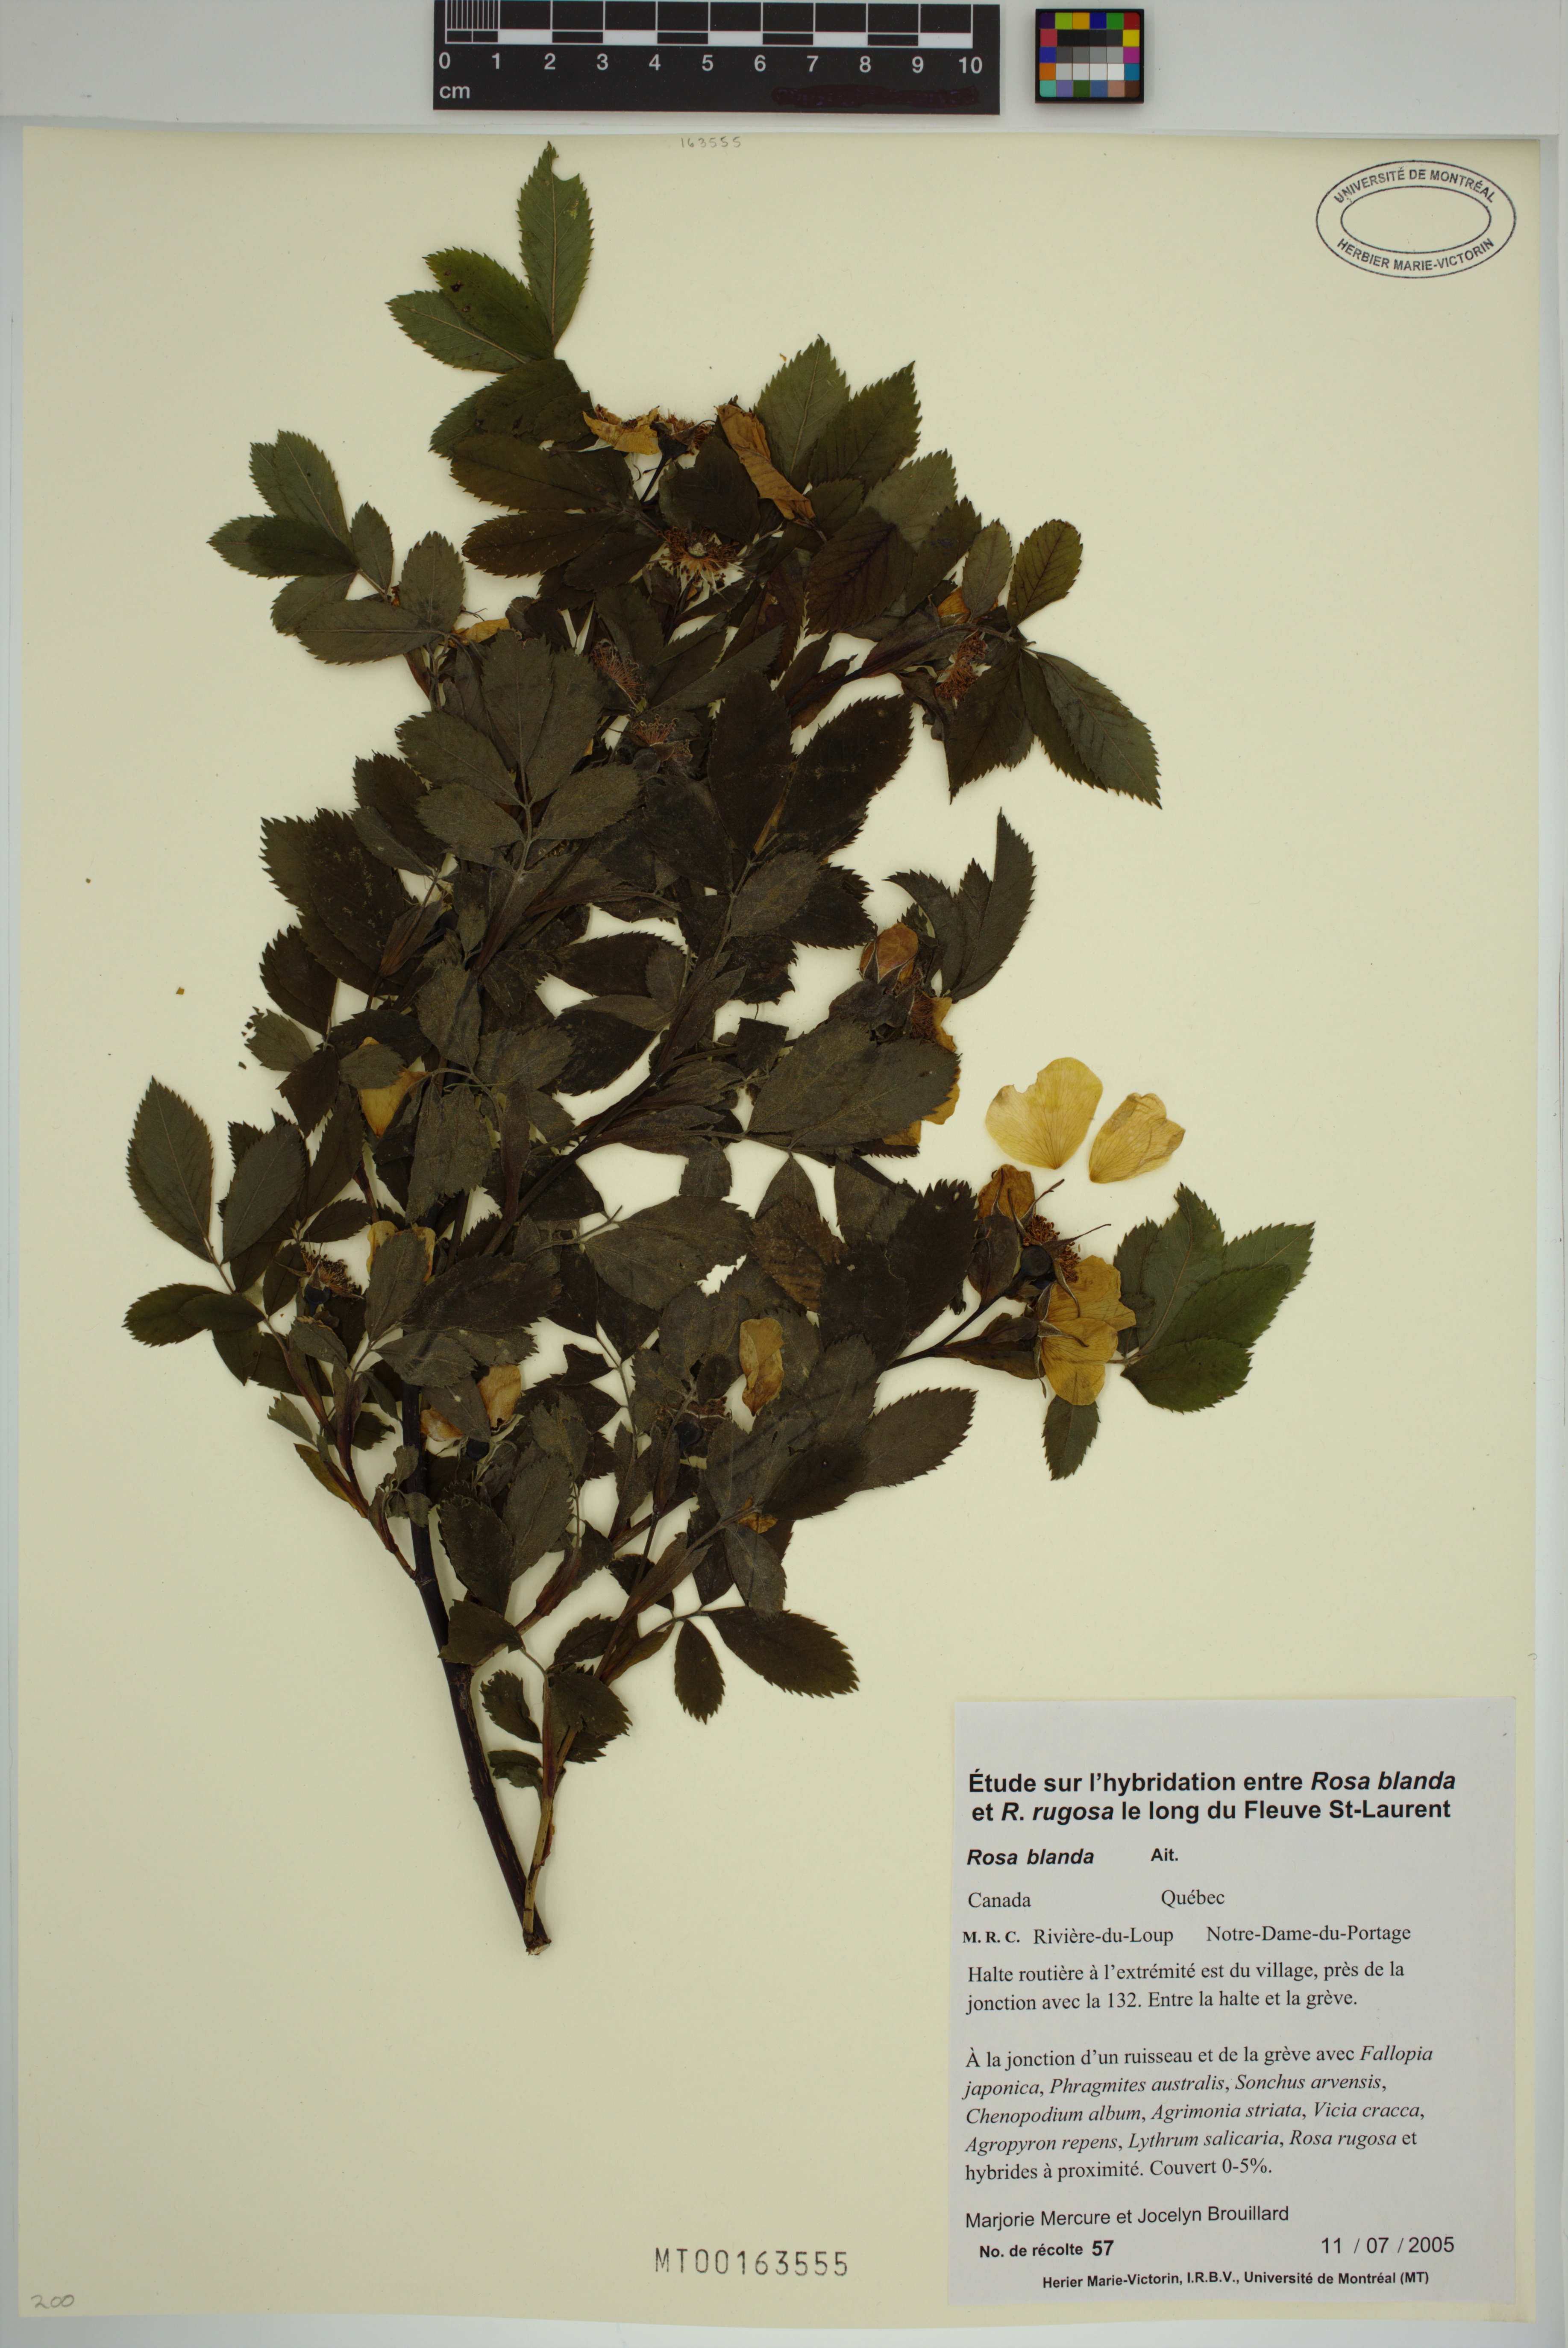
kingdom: Plantae
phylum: Tracheophyta
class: Magnoliopsida
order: Rosales
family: Rosaceae
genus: Rosa
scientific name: Rosa blanda
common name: Smooth rose
